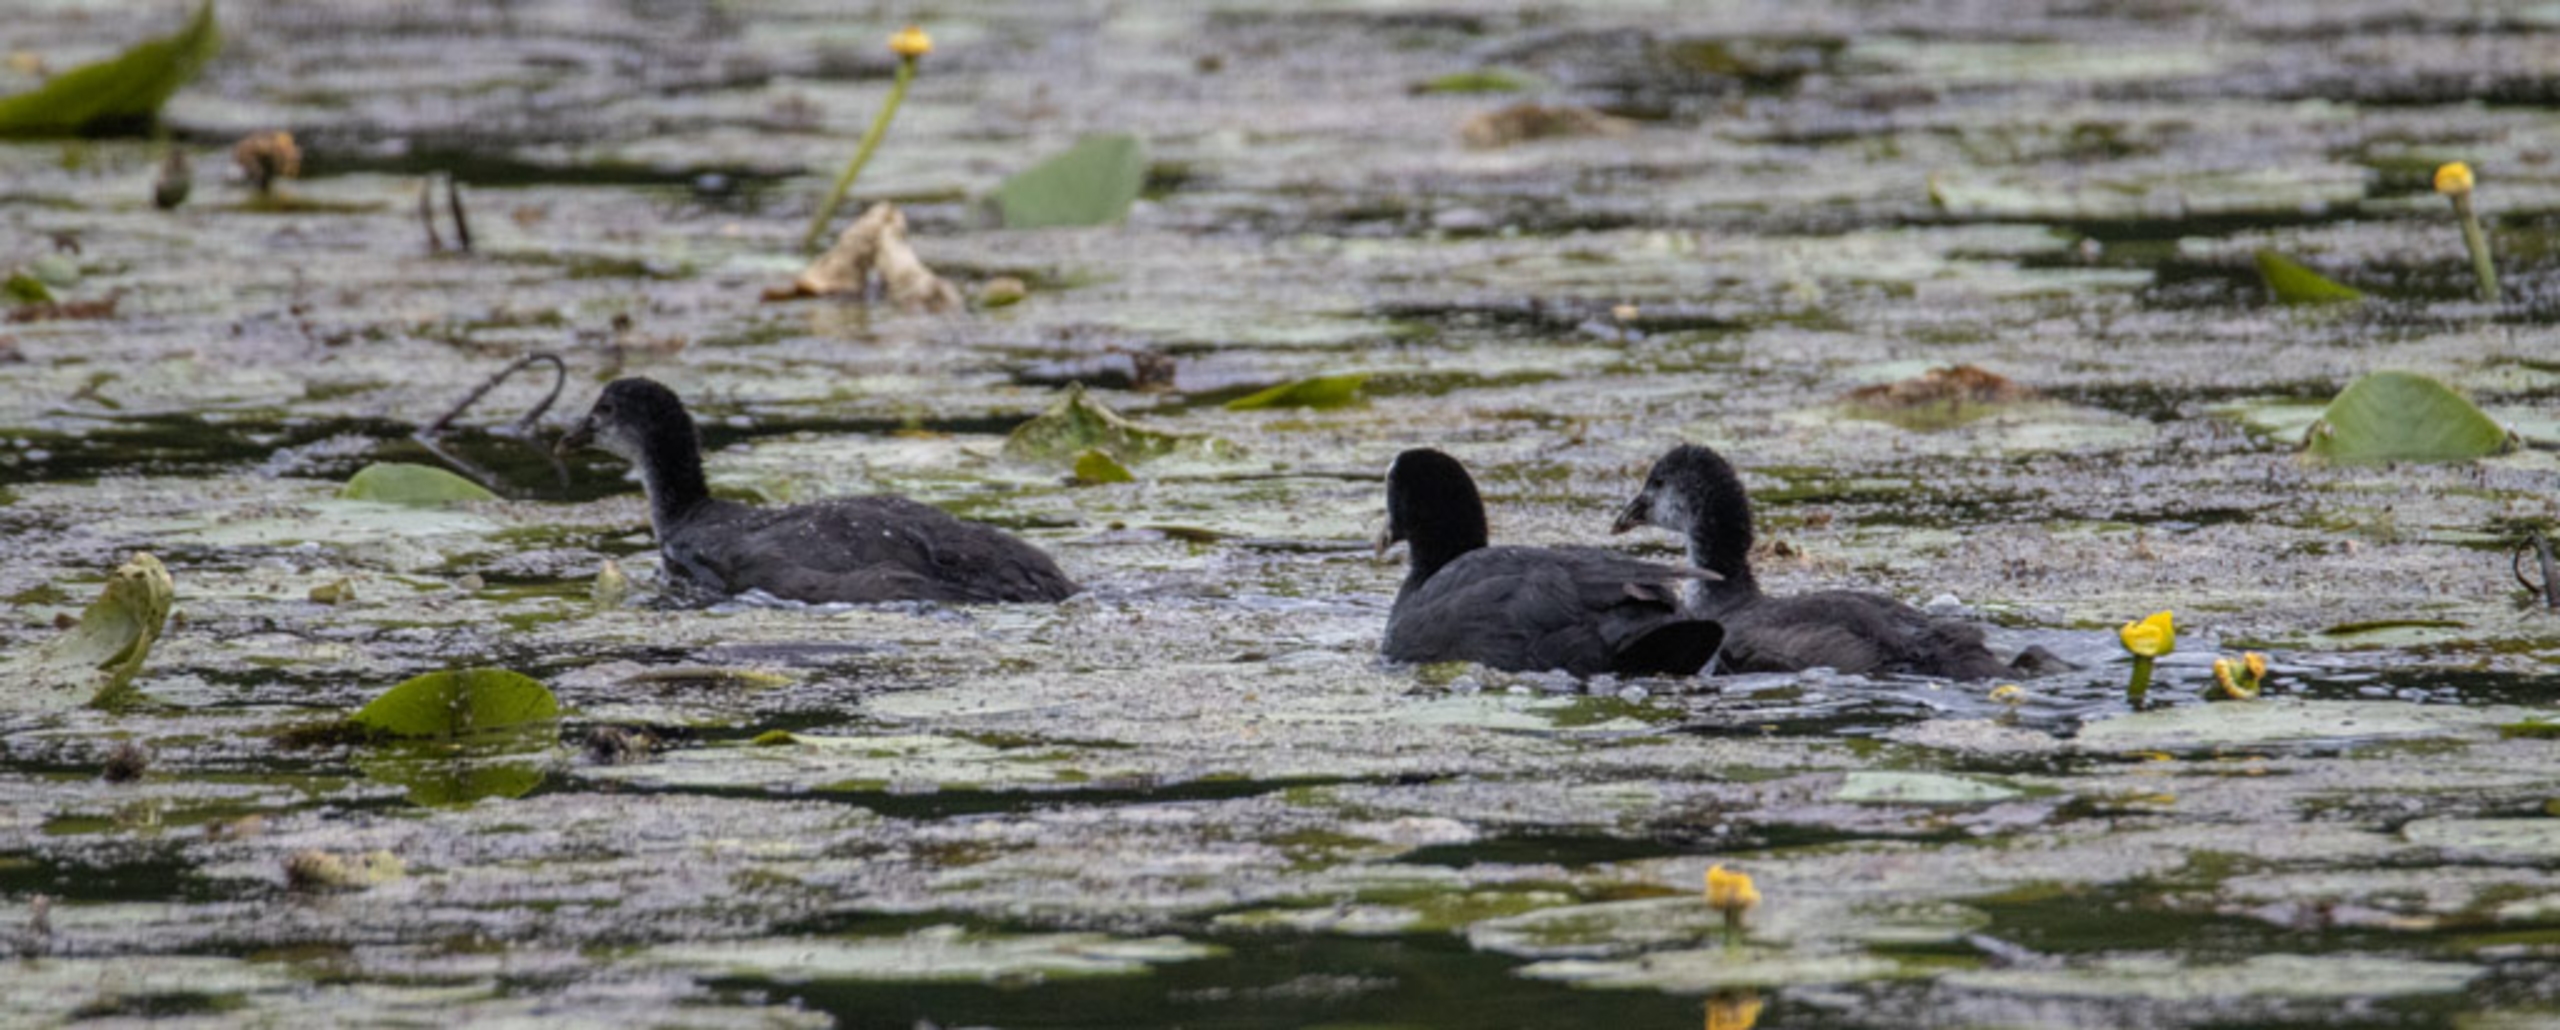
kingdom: Animalia
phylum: Chordata
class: Aves
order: Gruiformes
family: Rallidae
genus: Fulica
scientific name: Fulica atra
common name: Blishøne
